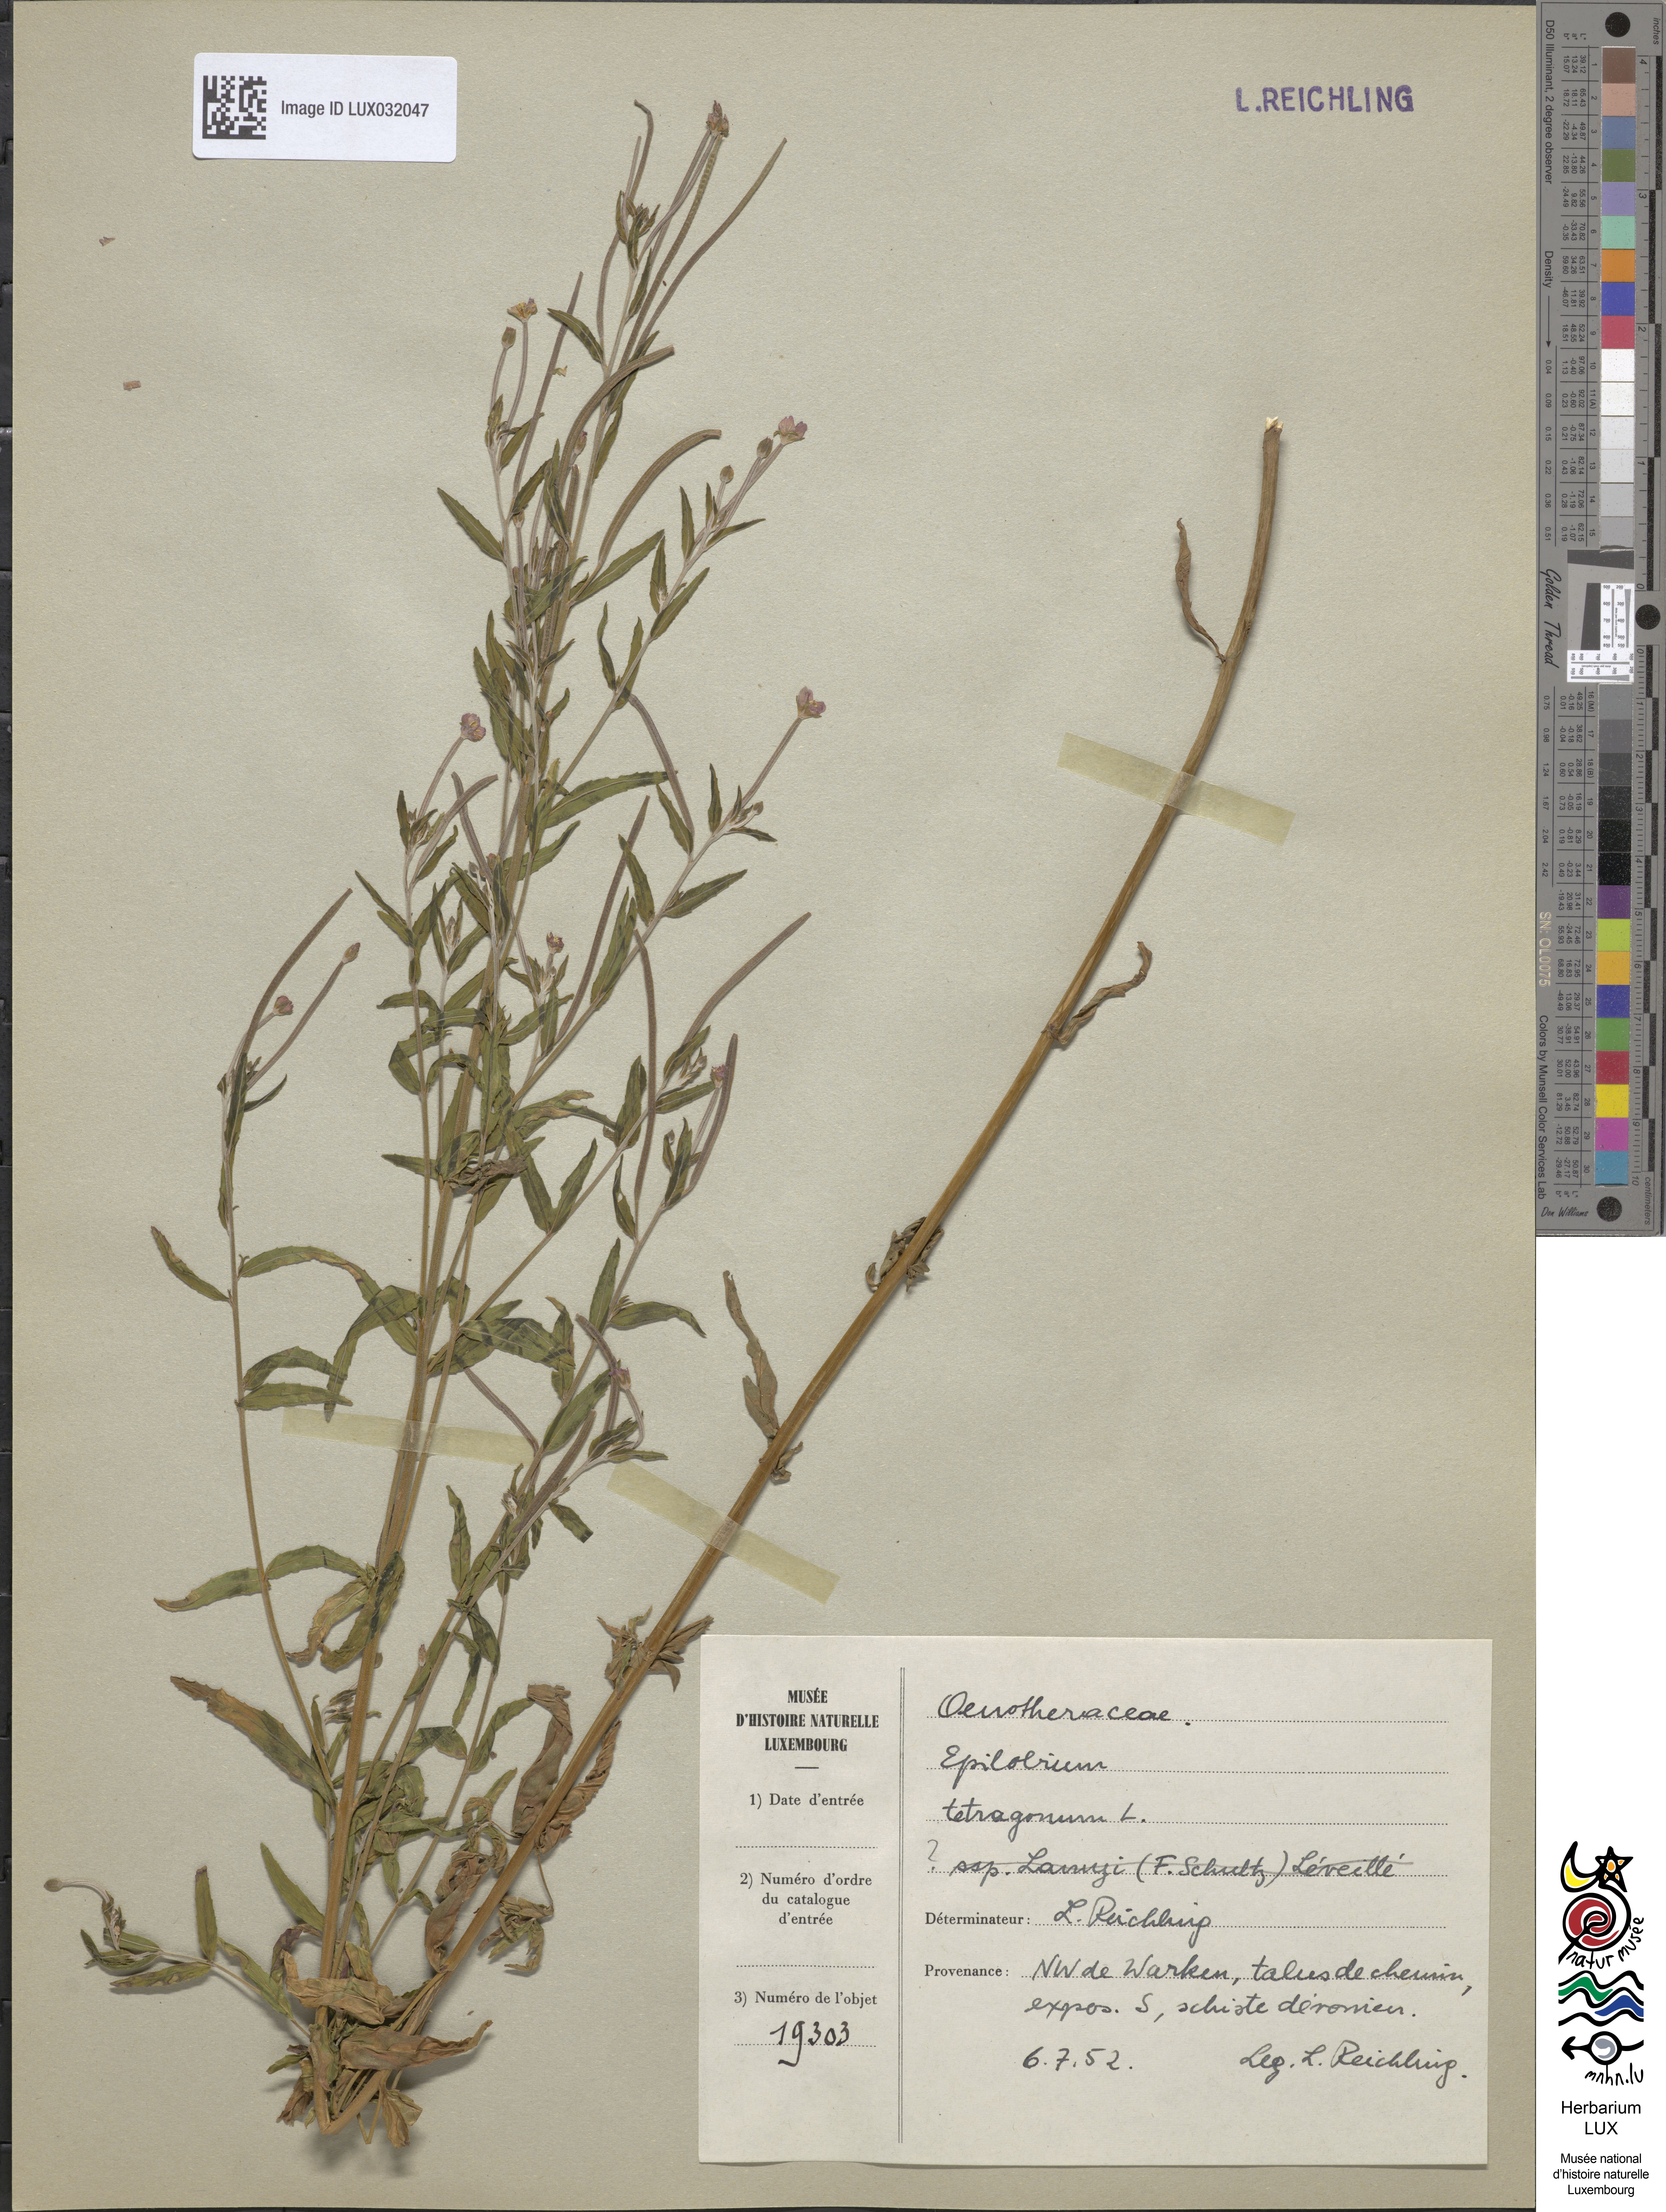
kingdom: Plantae
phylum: Tracheophyta
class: Magnoliopsida
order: Myrtales
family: Onagraceae
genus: Epilobium
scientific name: Epilobium lamyi
